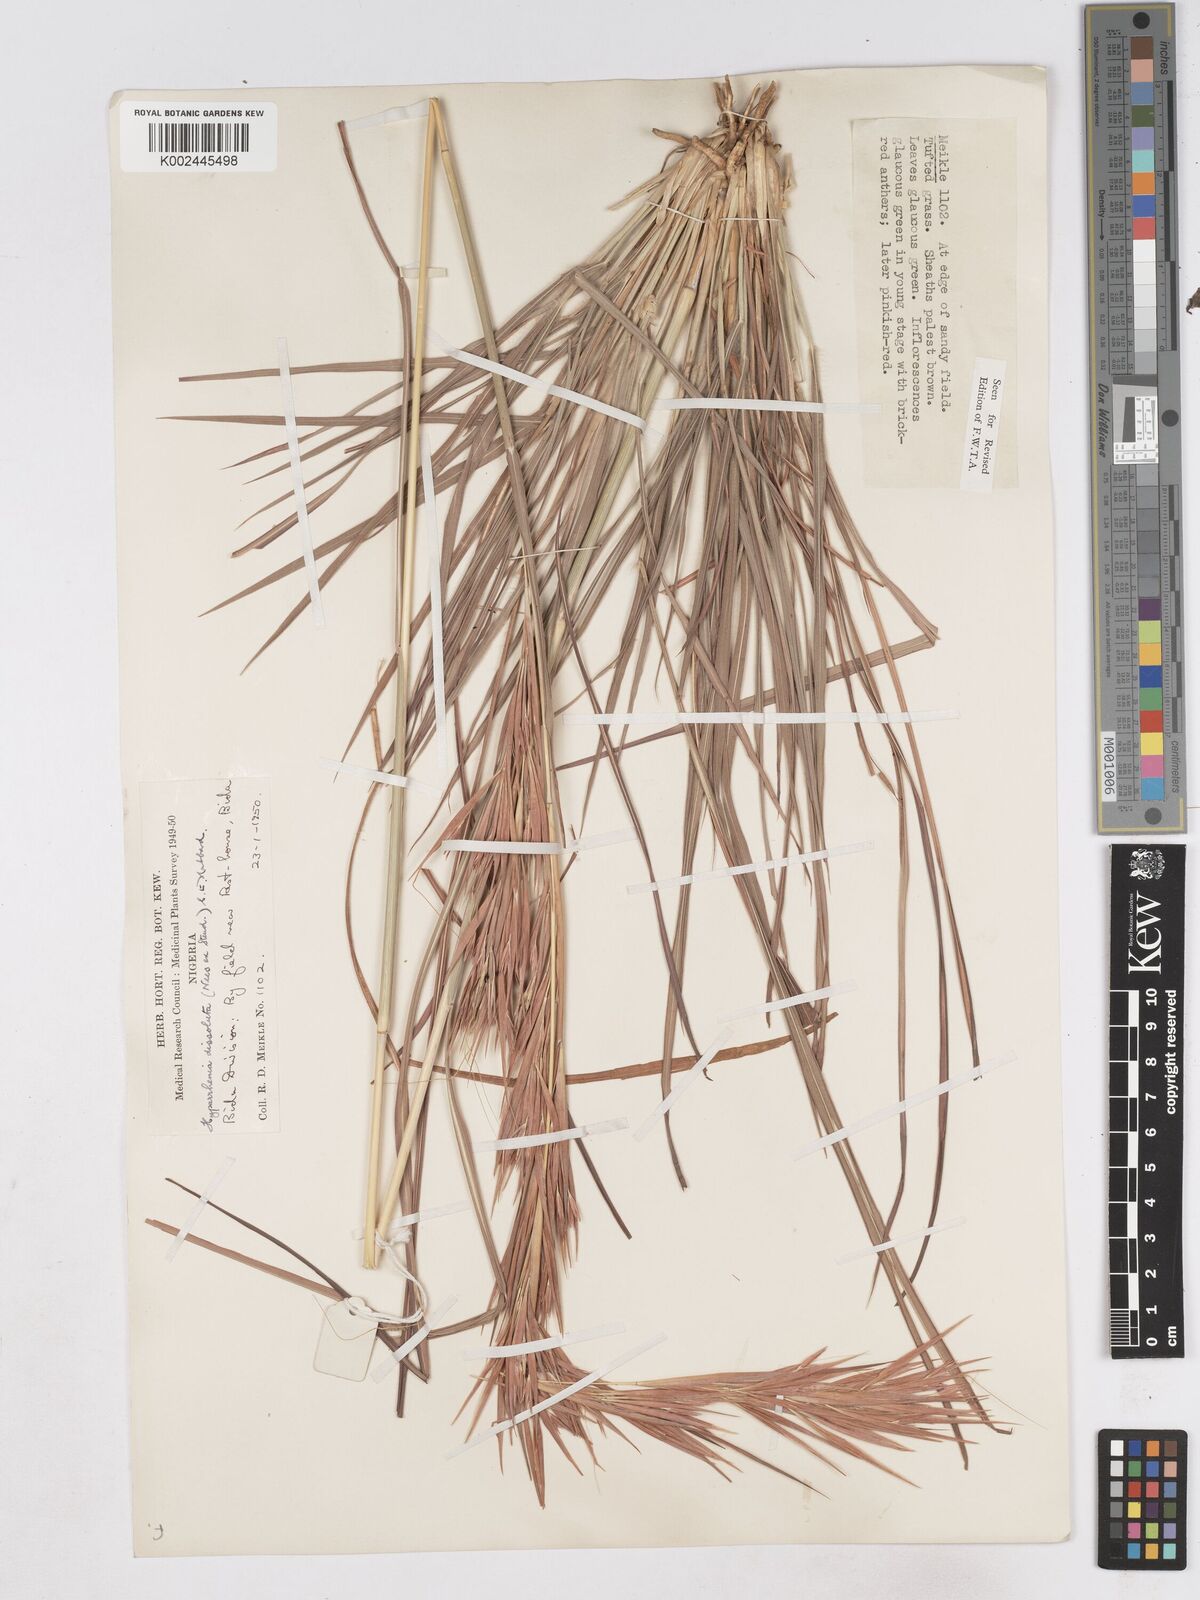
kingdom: Plantae
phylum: Tracheophyta
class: Liliopsida
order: Poales
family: Poaceae
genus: Hyperthelia
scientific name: Hyperthelia dissoluta
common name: Yellow thatching grass
